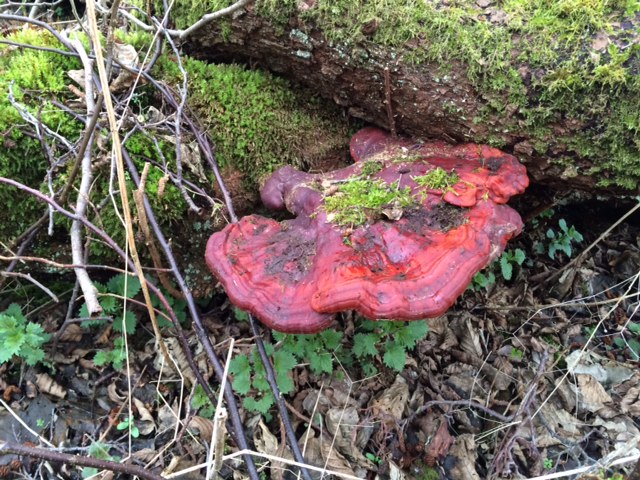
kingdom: Fungi
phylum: Basidiomycota
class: Agaricomycetes
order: Polyporales
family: Polyporaceae
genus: Ganoderma
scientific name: Ganoderma lucidum
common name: skinnende lakporesvamp
